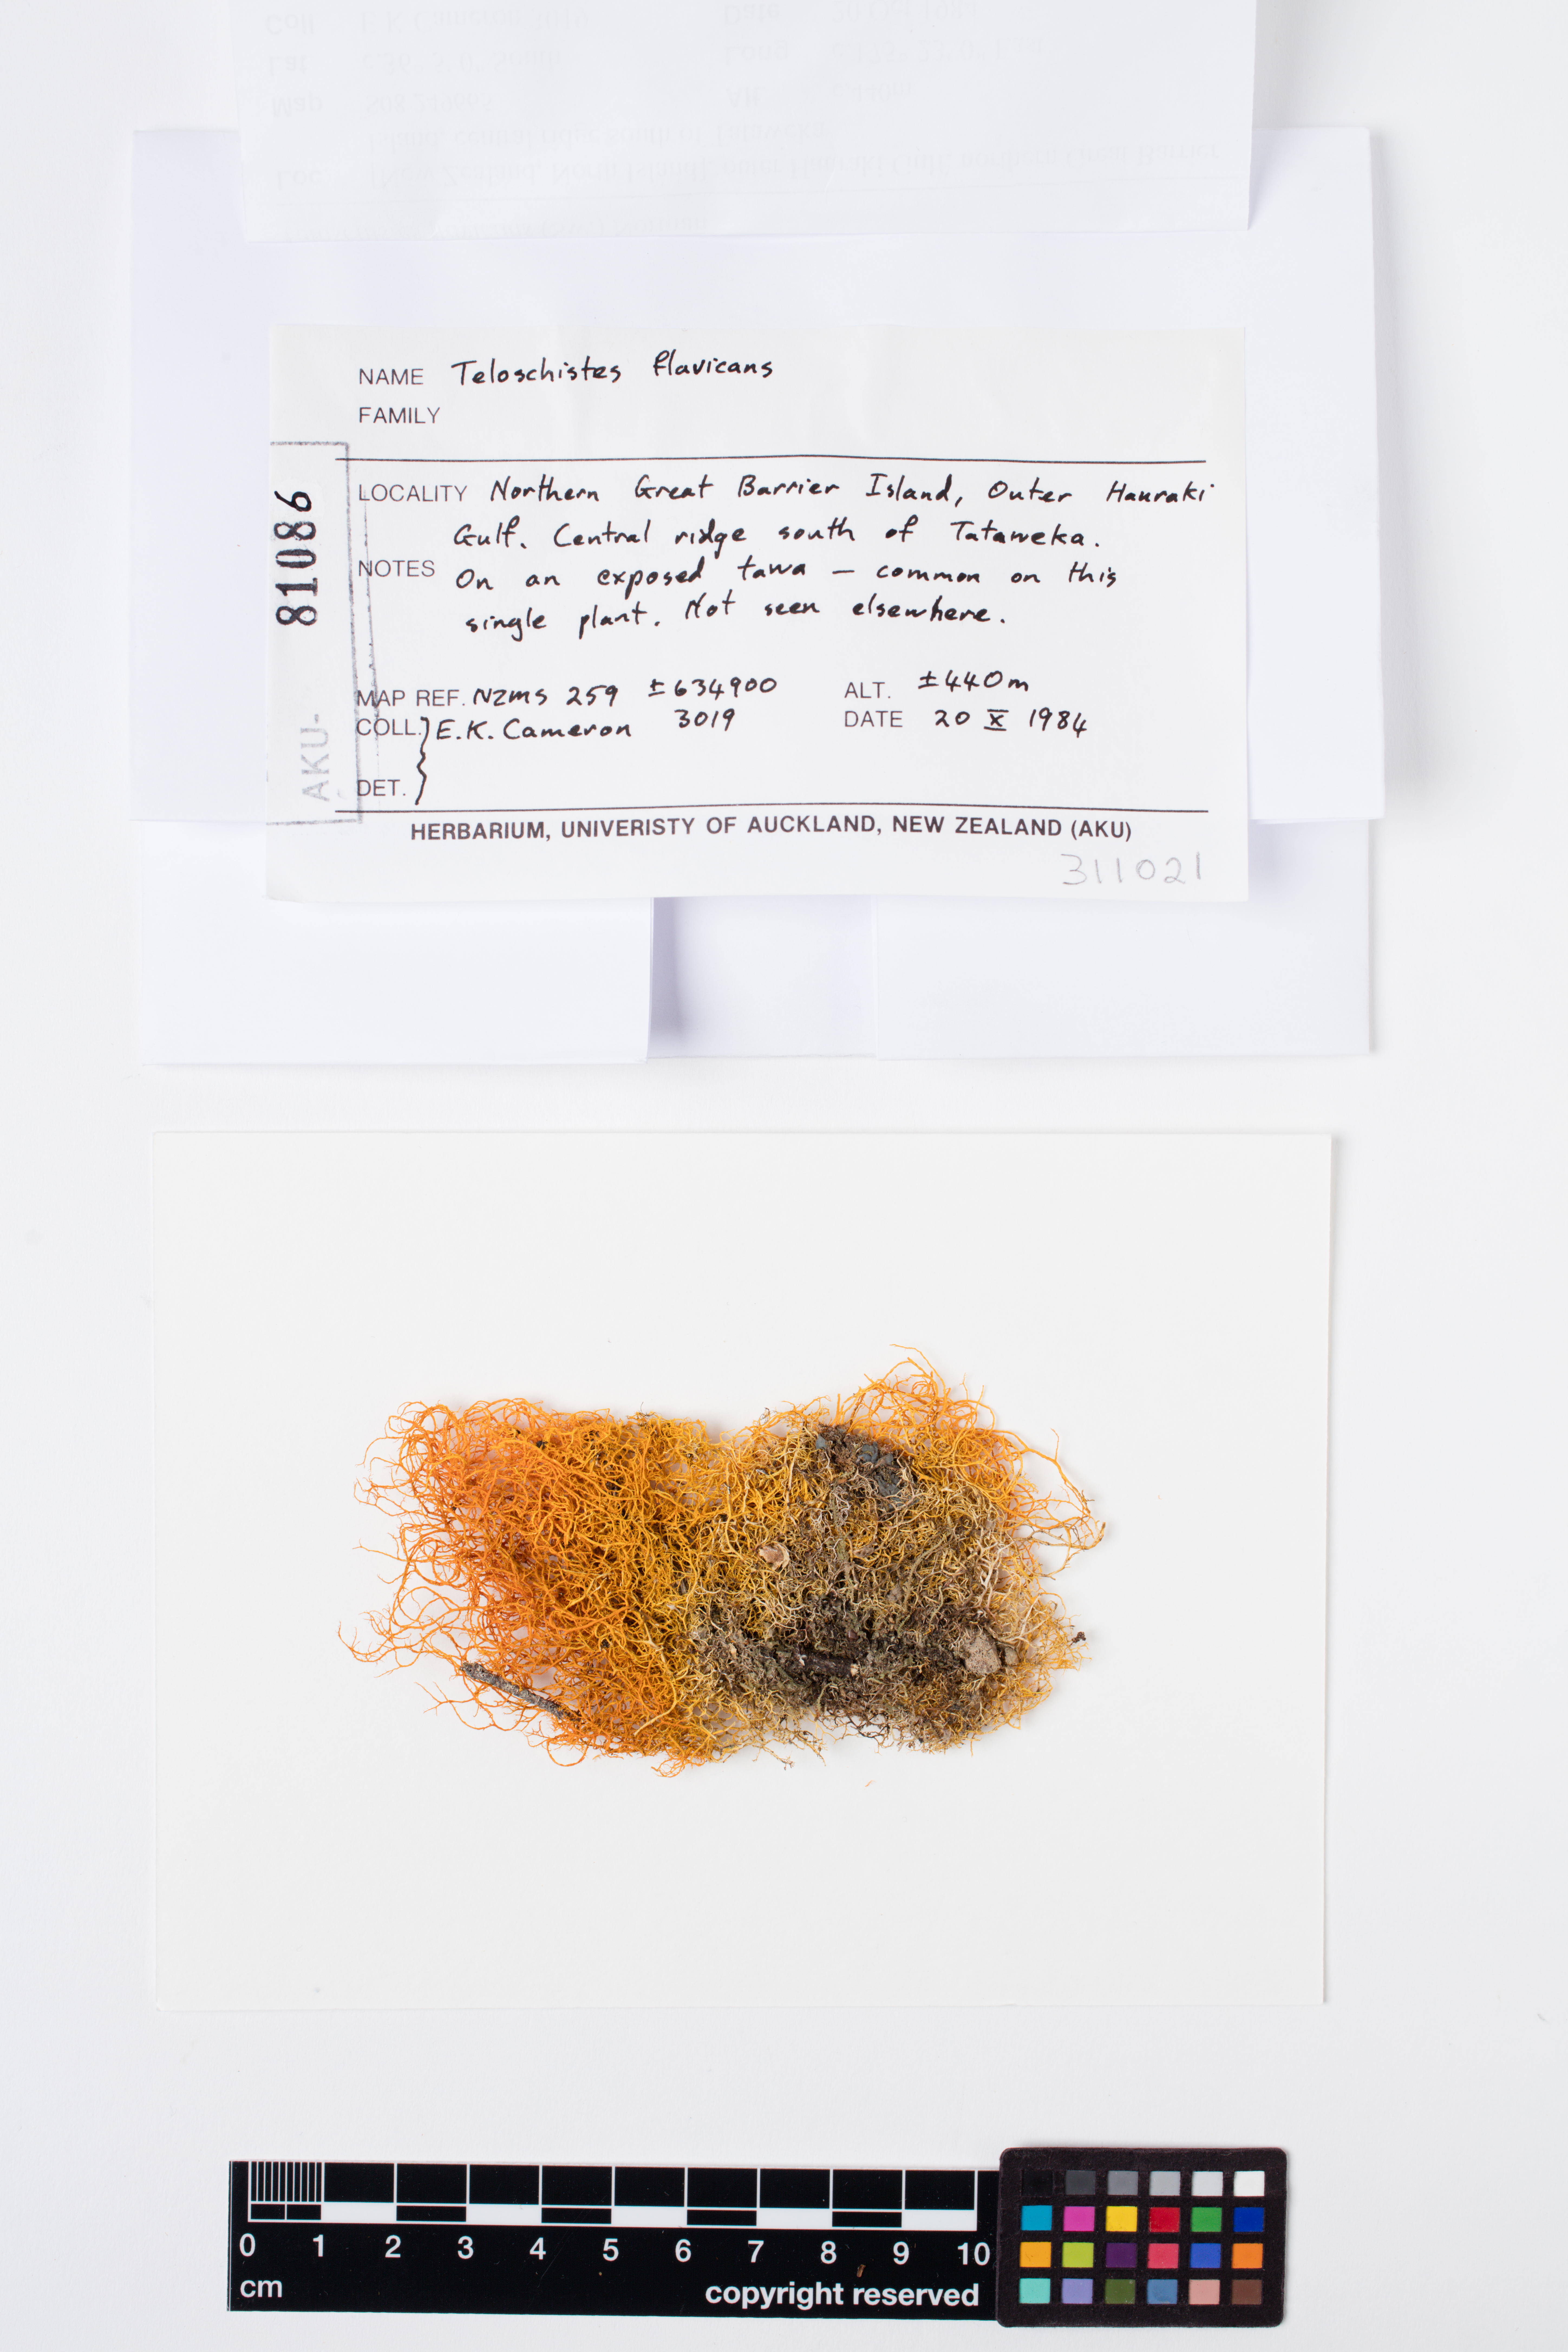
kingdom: Fungi
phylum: Ascomycota
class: Lecanoromycetes
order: Teloschistales
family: Teloschistaceae
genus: Teloschistes
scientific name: Teloschistes flavicans
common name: Golden hair-lichen
